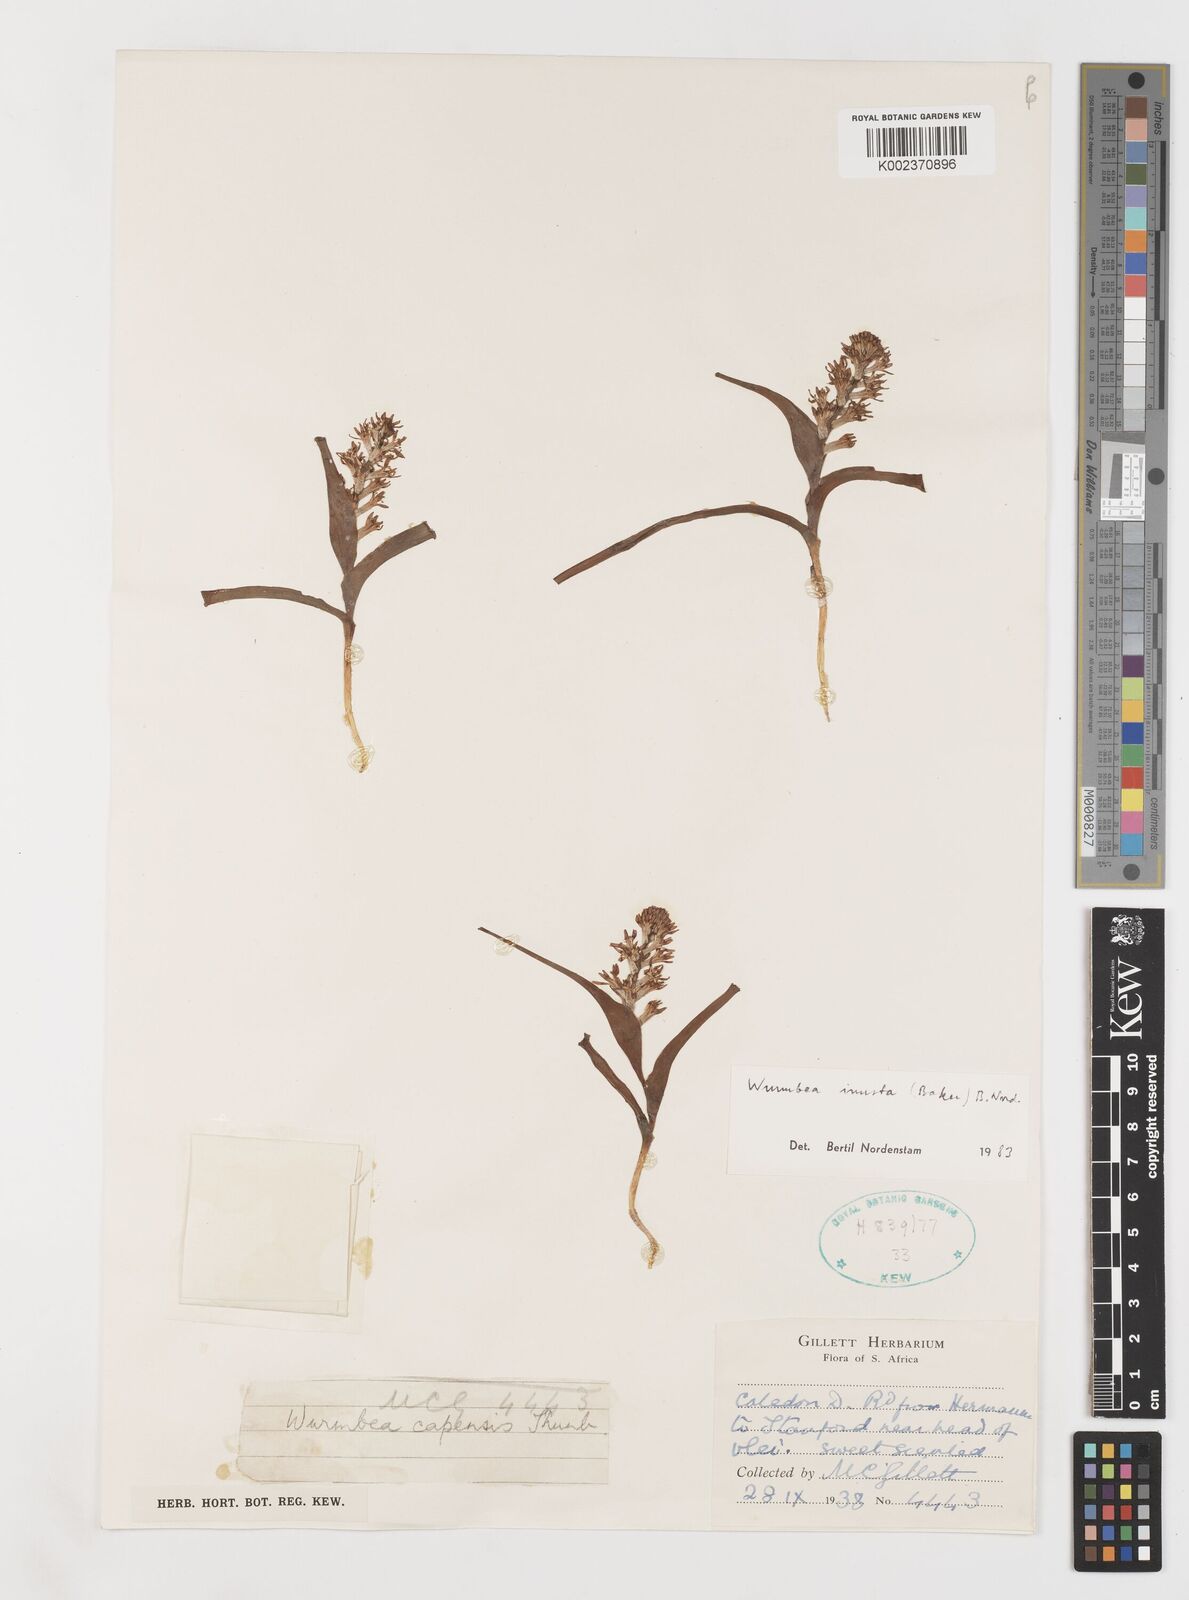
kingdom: Plantae
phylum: Tracheophyta
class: Liliopsida
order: Liliales
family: Colchicaceae
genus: Wurmbea
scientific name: Wurmbea inusta
